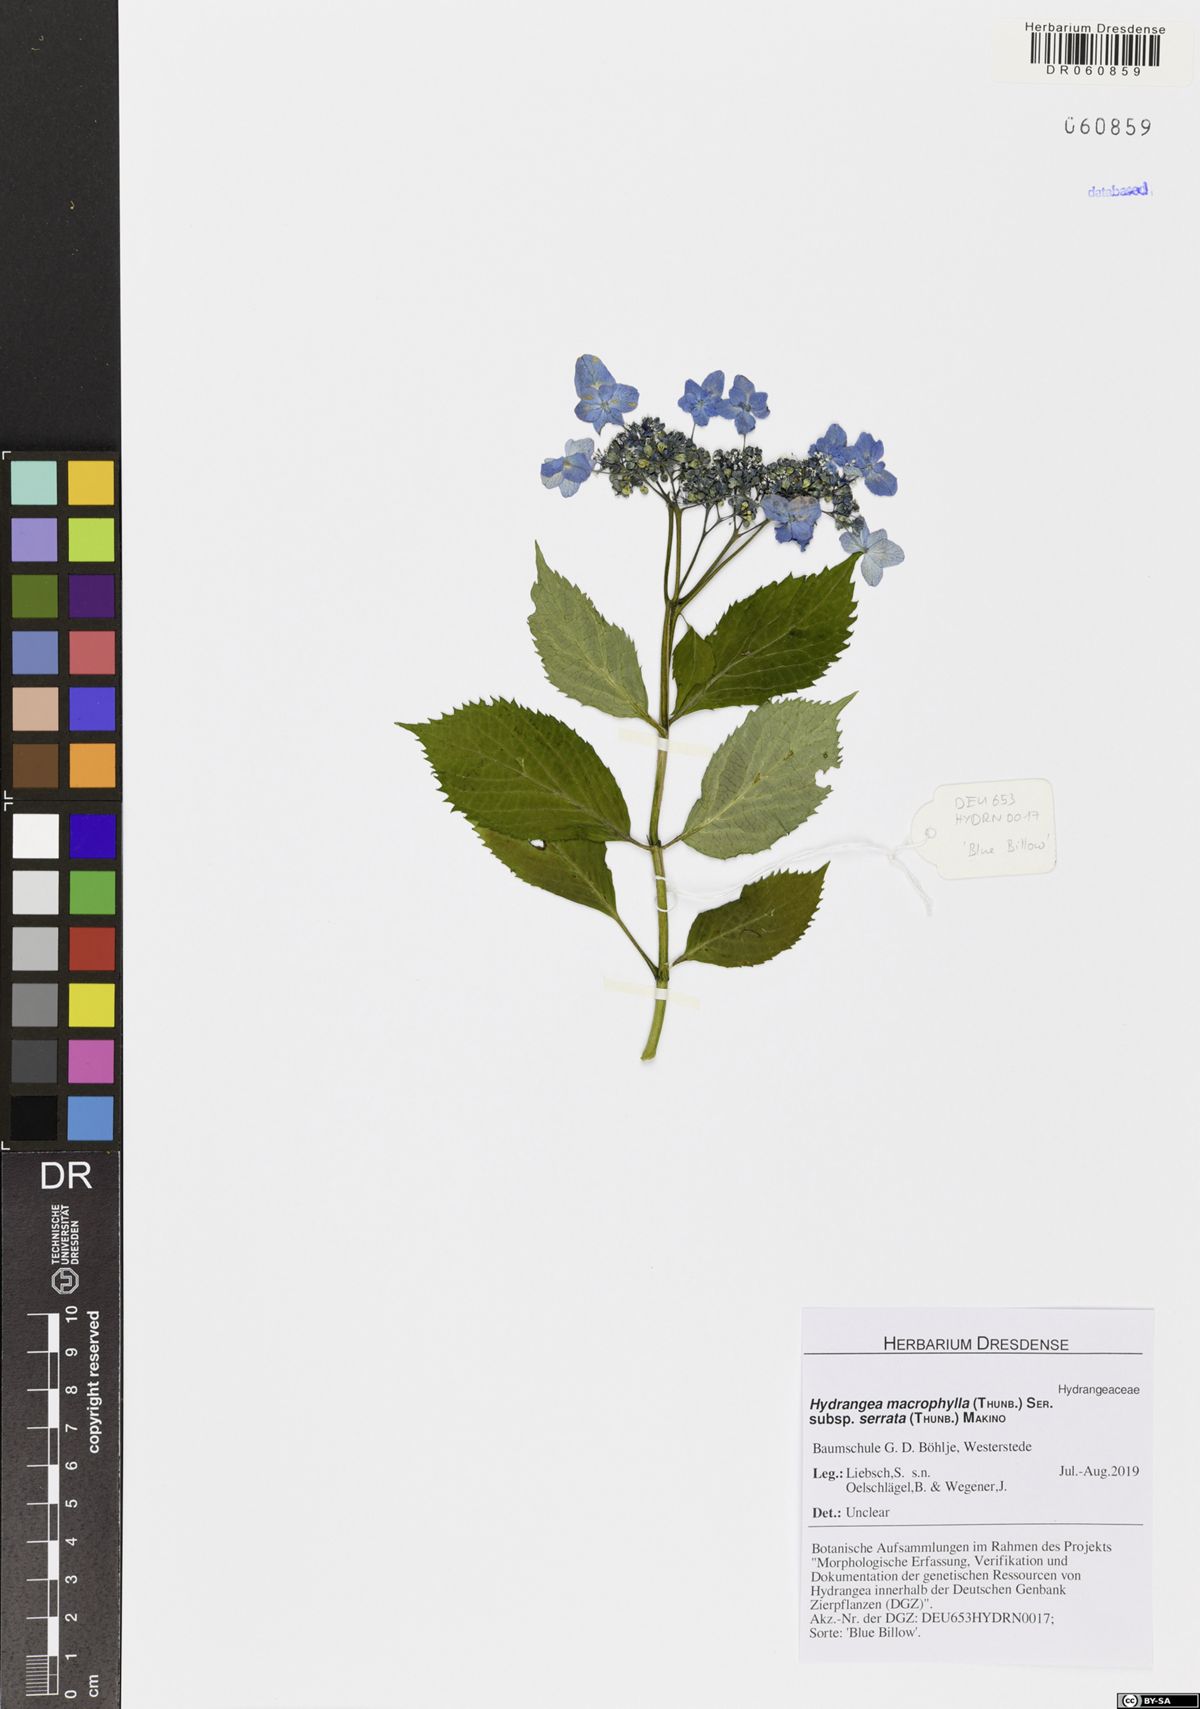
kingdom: Plantae
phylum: Tracheophyta
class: Magnoliopsida
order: Cornales
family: Hydrangeaceae
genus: Hydrangea
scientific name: Hydrangea quercifolia
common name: Oak-leaf hydrangea
